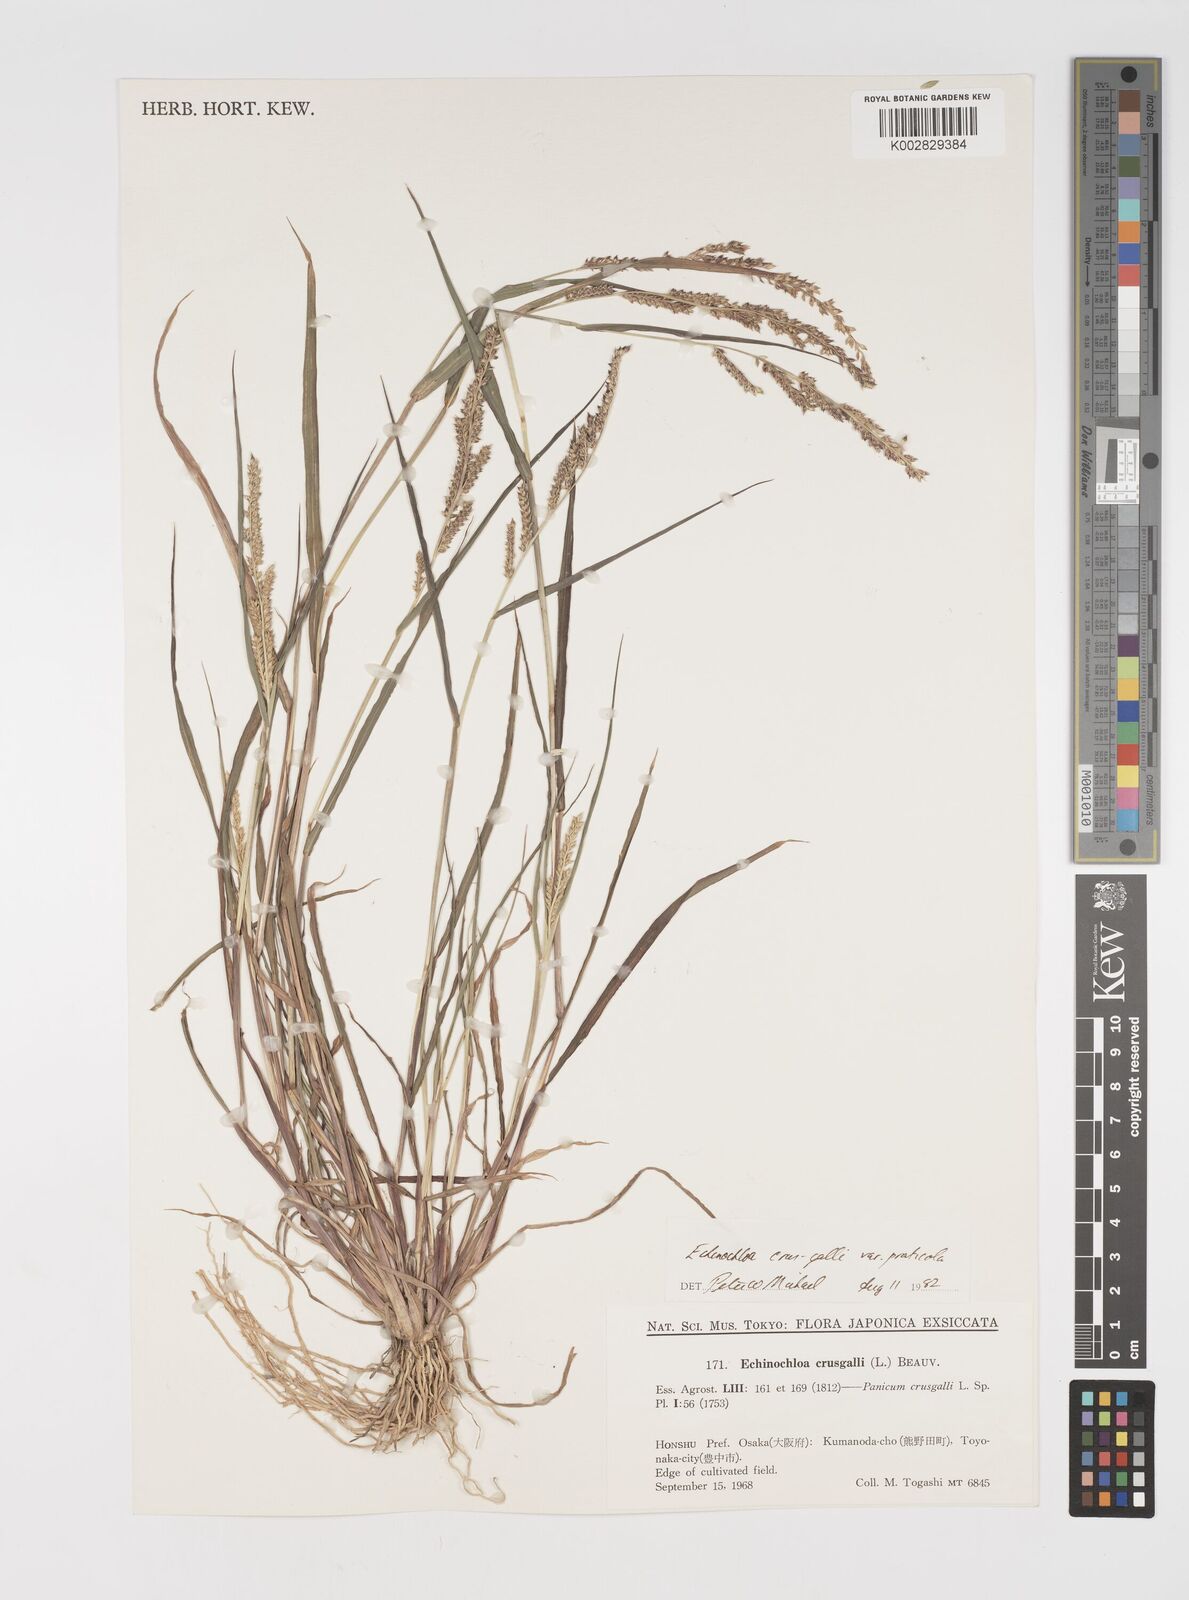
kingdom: Plantae
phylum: Tracheophyta
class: Liliopsida
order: Poales
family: Poaceae
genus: Echinochloa
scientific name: Echinochloa crus-galli
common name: Cockspur
